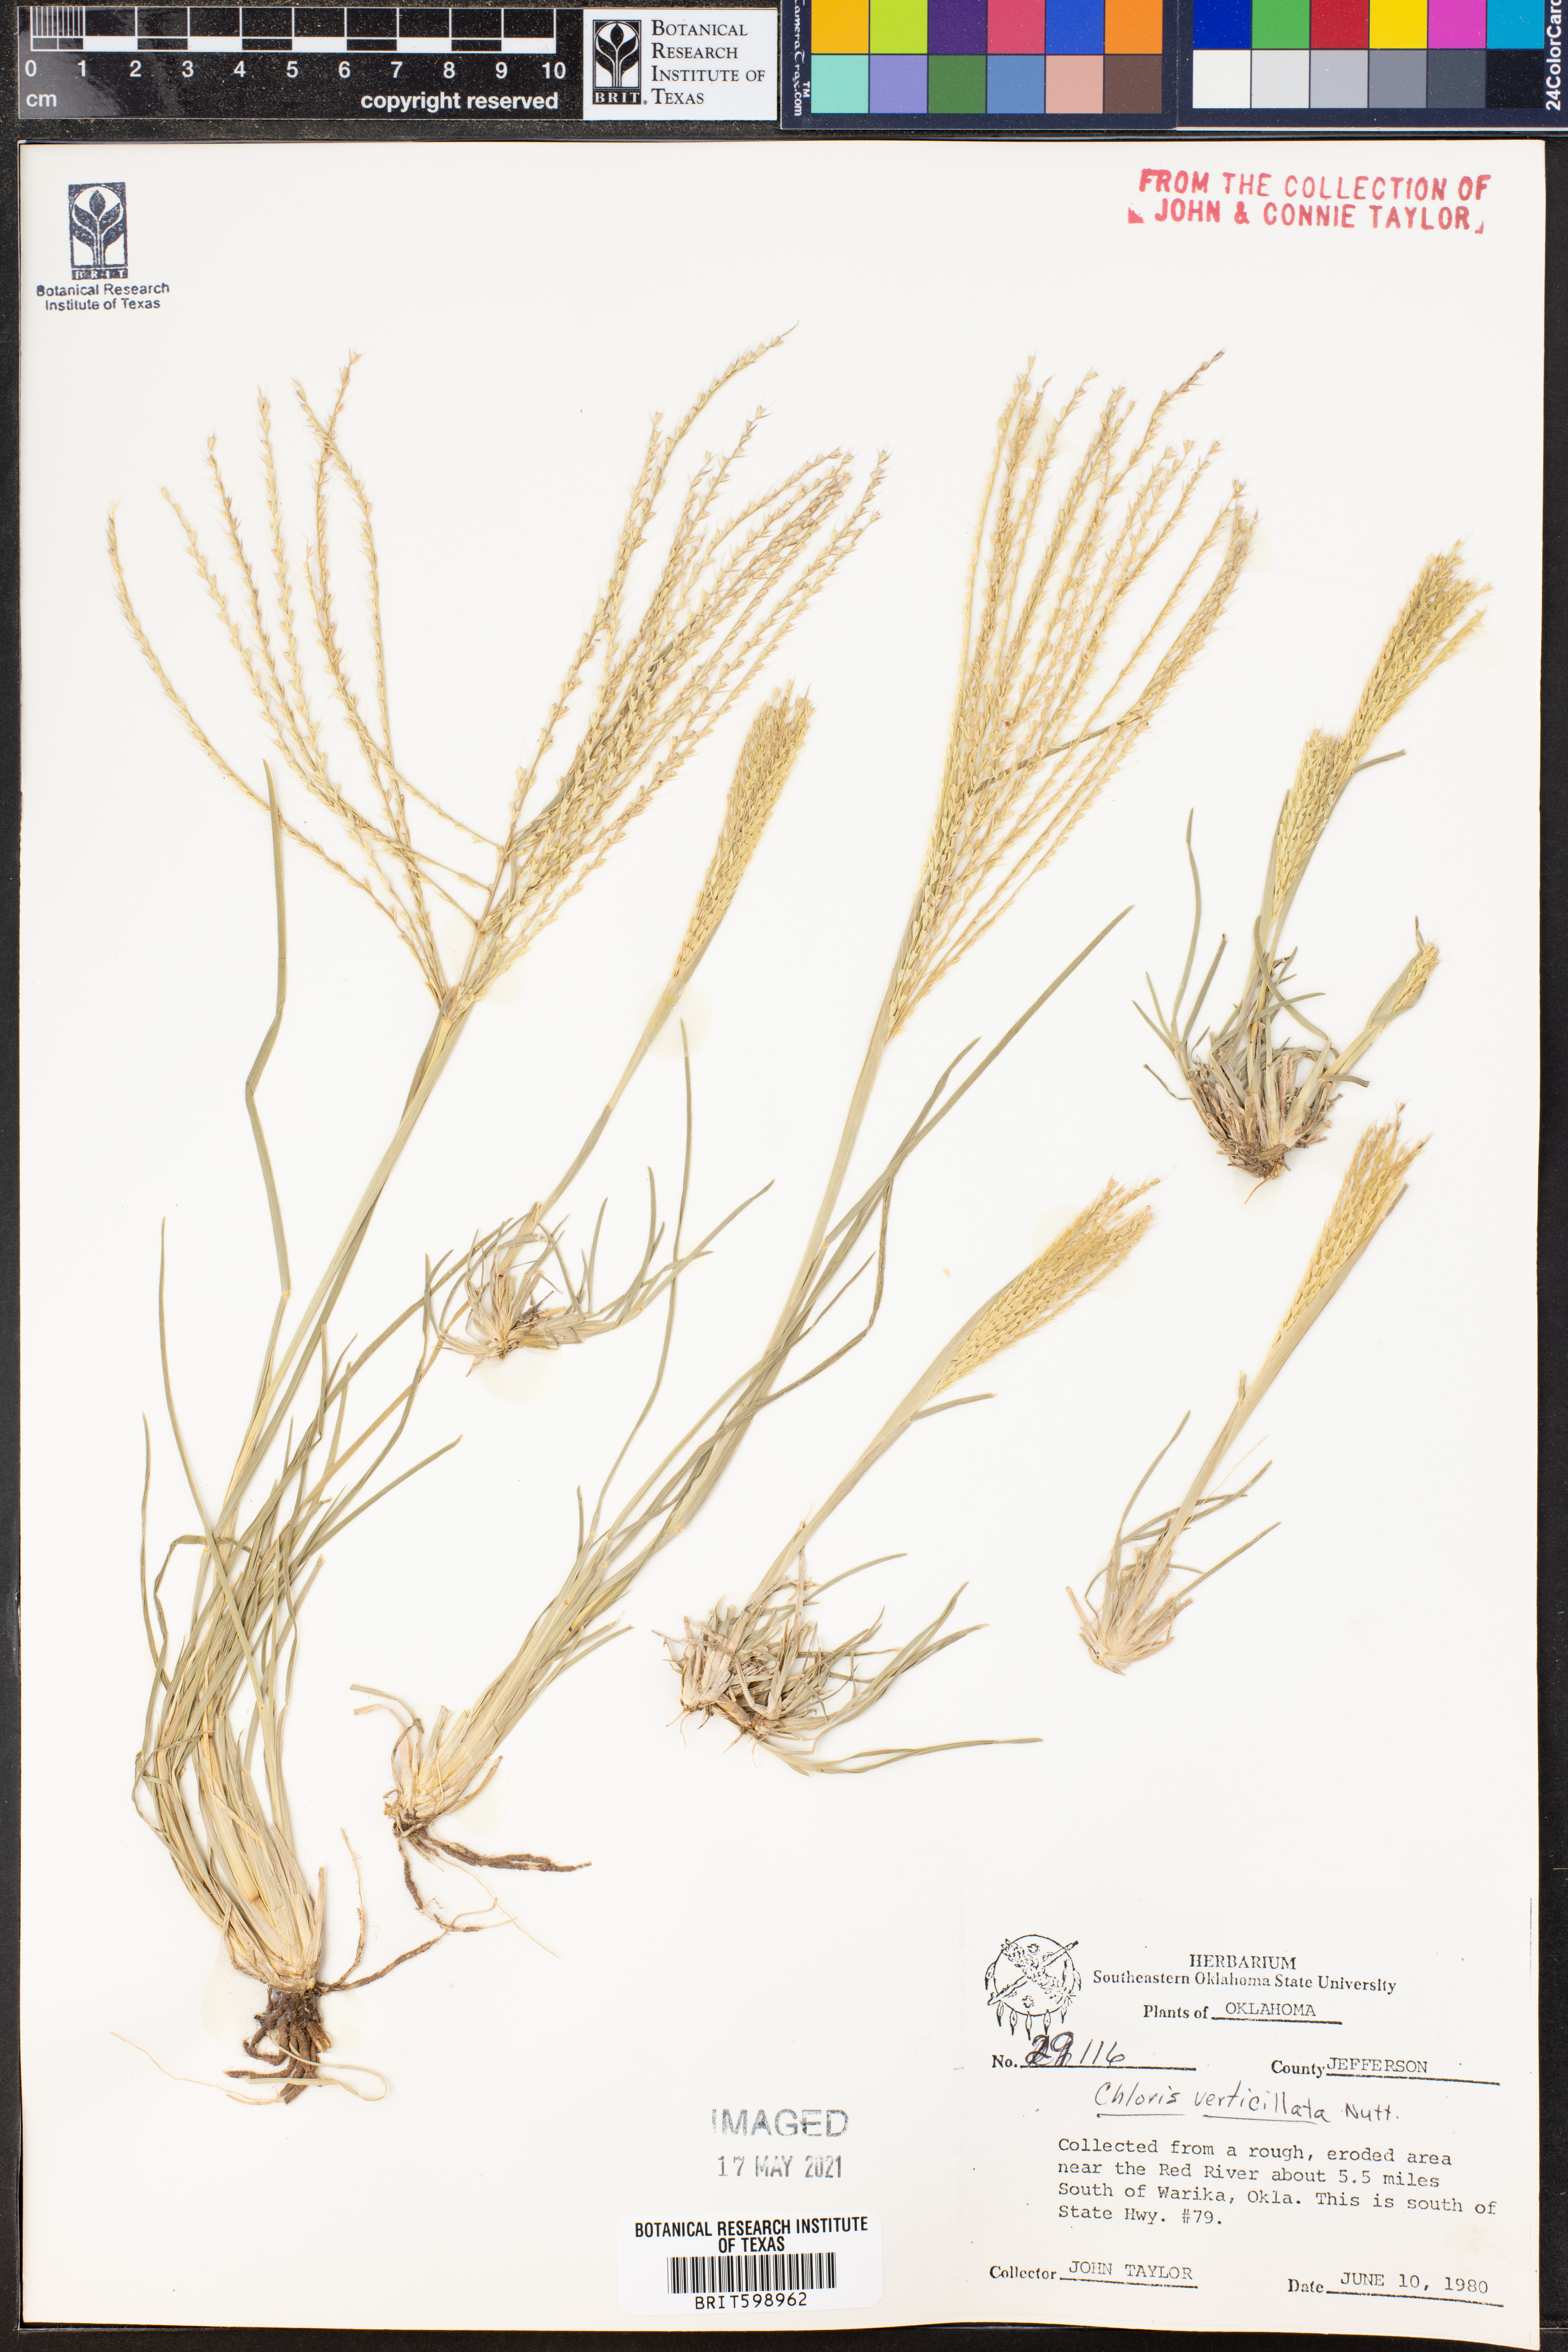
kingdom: Plantae
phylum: Tracheophyta
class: Liliopsida
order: Poales
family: Poaceae
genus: Chloris
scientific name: Chloris verticillata
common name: Tumble windmill grass
